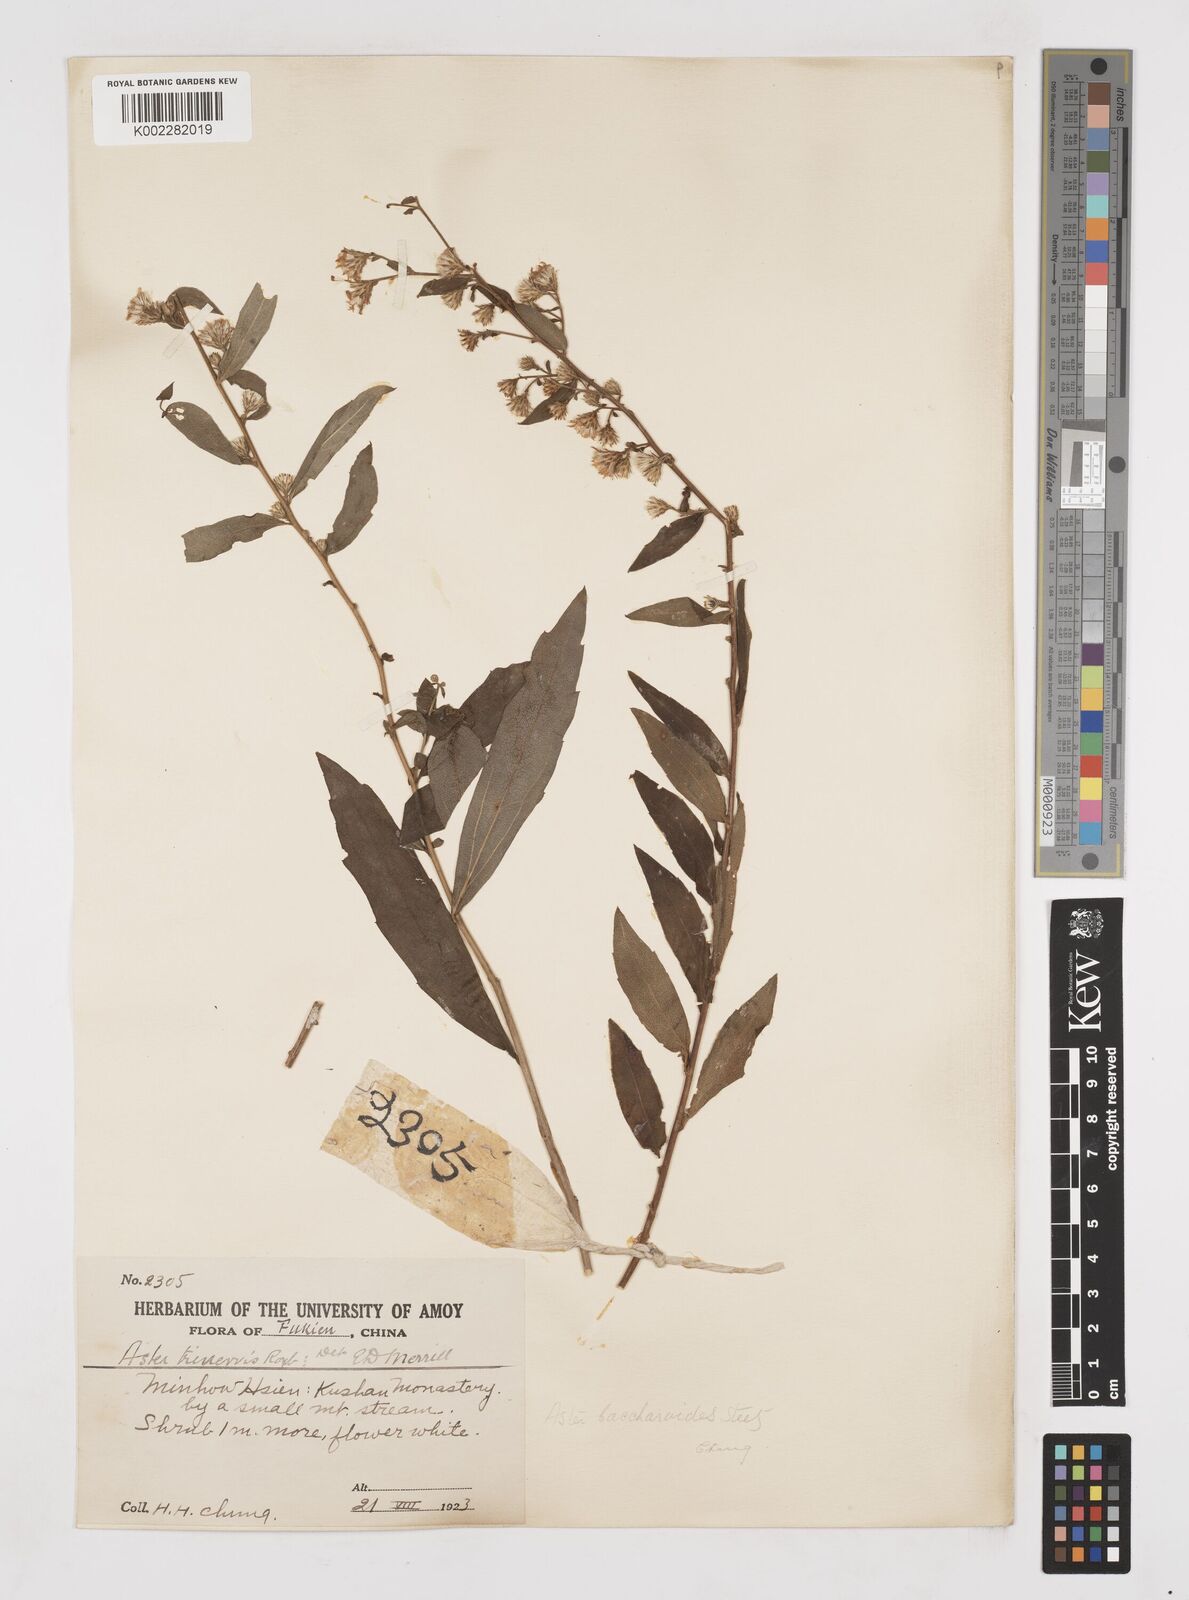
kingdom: Plantae
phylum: Tracheophyta
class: Magnoliopsida
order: Asterales
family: Asteraceae
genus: Aster
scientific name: Aster baccharoides
